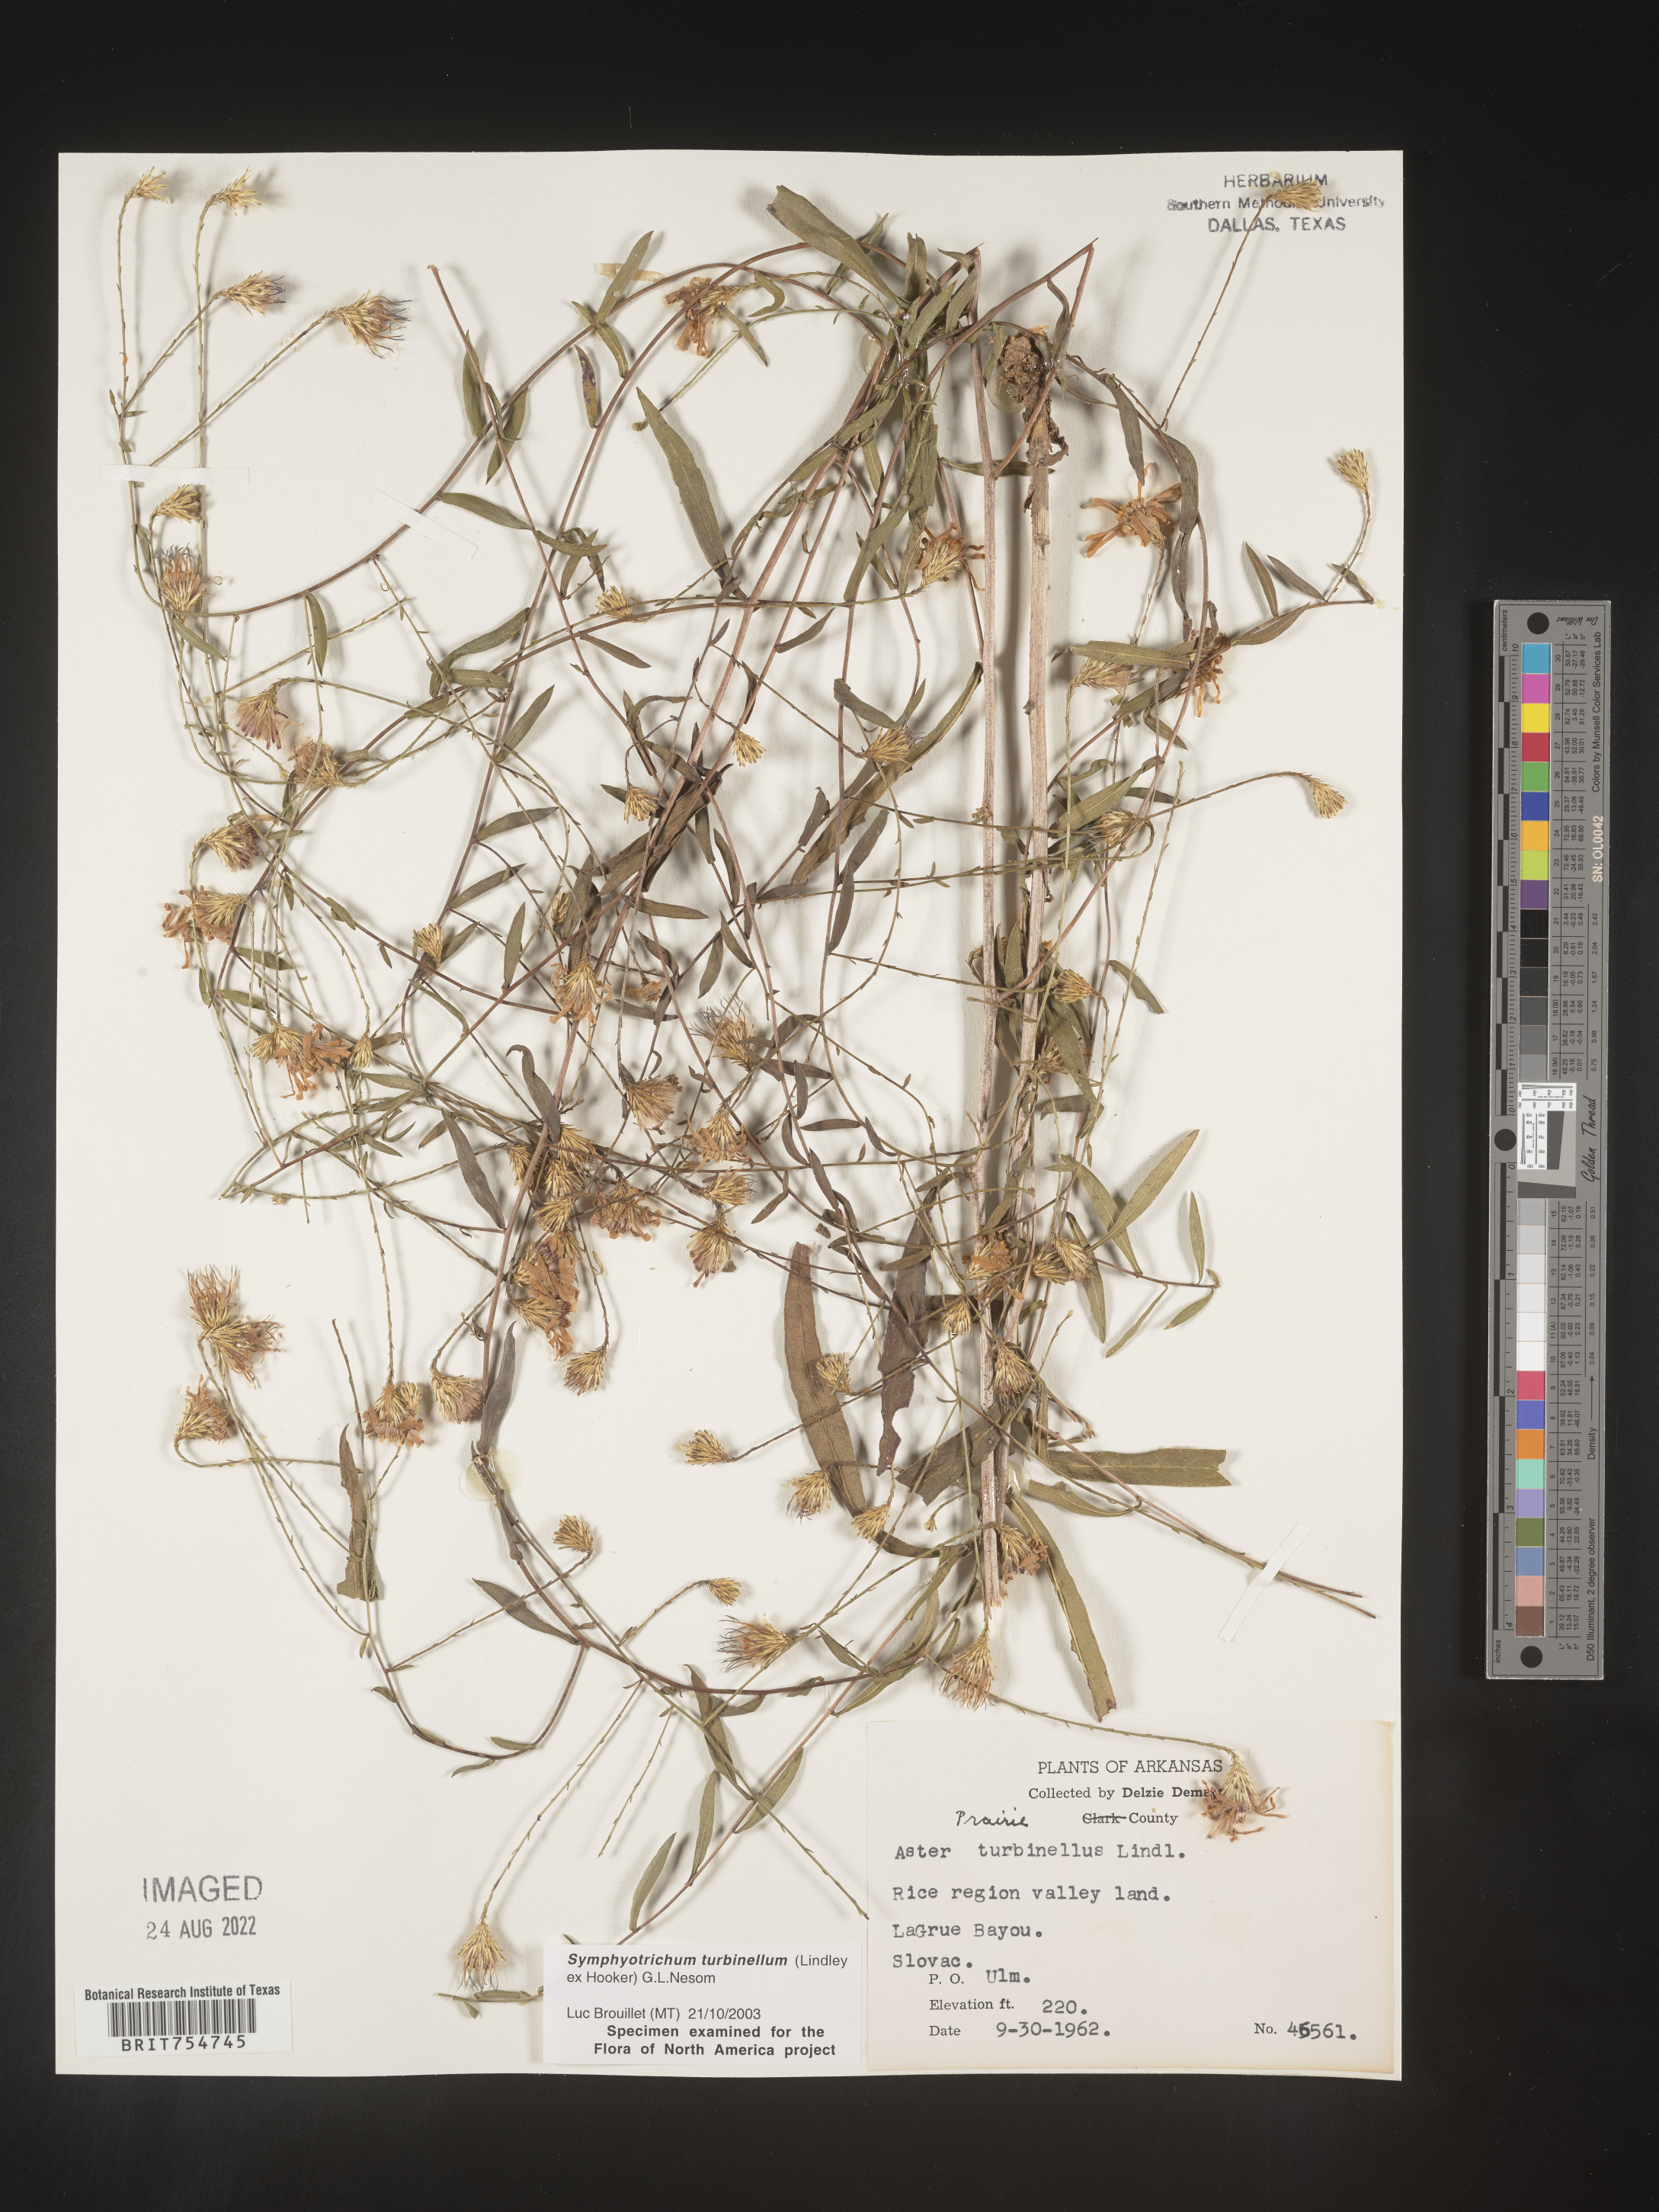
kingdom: Plantae
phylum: Tracheophyta
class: Magnoliopsida
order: Asterales
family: Asteraceae
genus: Symphyotrichum
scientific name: Symphyotrichum turbinellum
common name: Prairie aster
